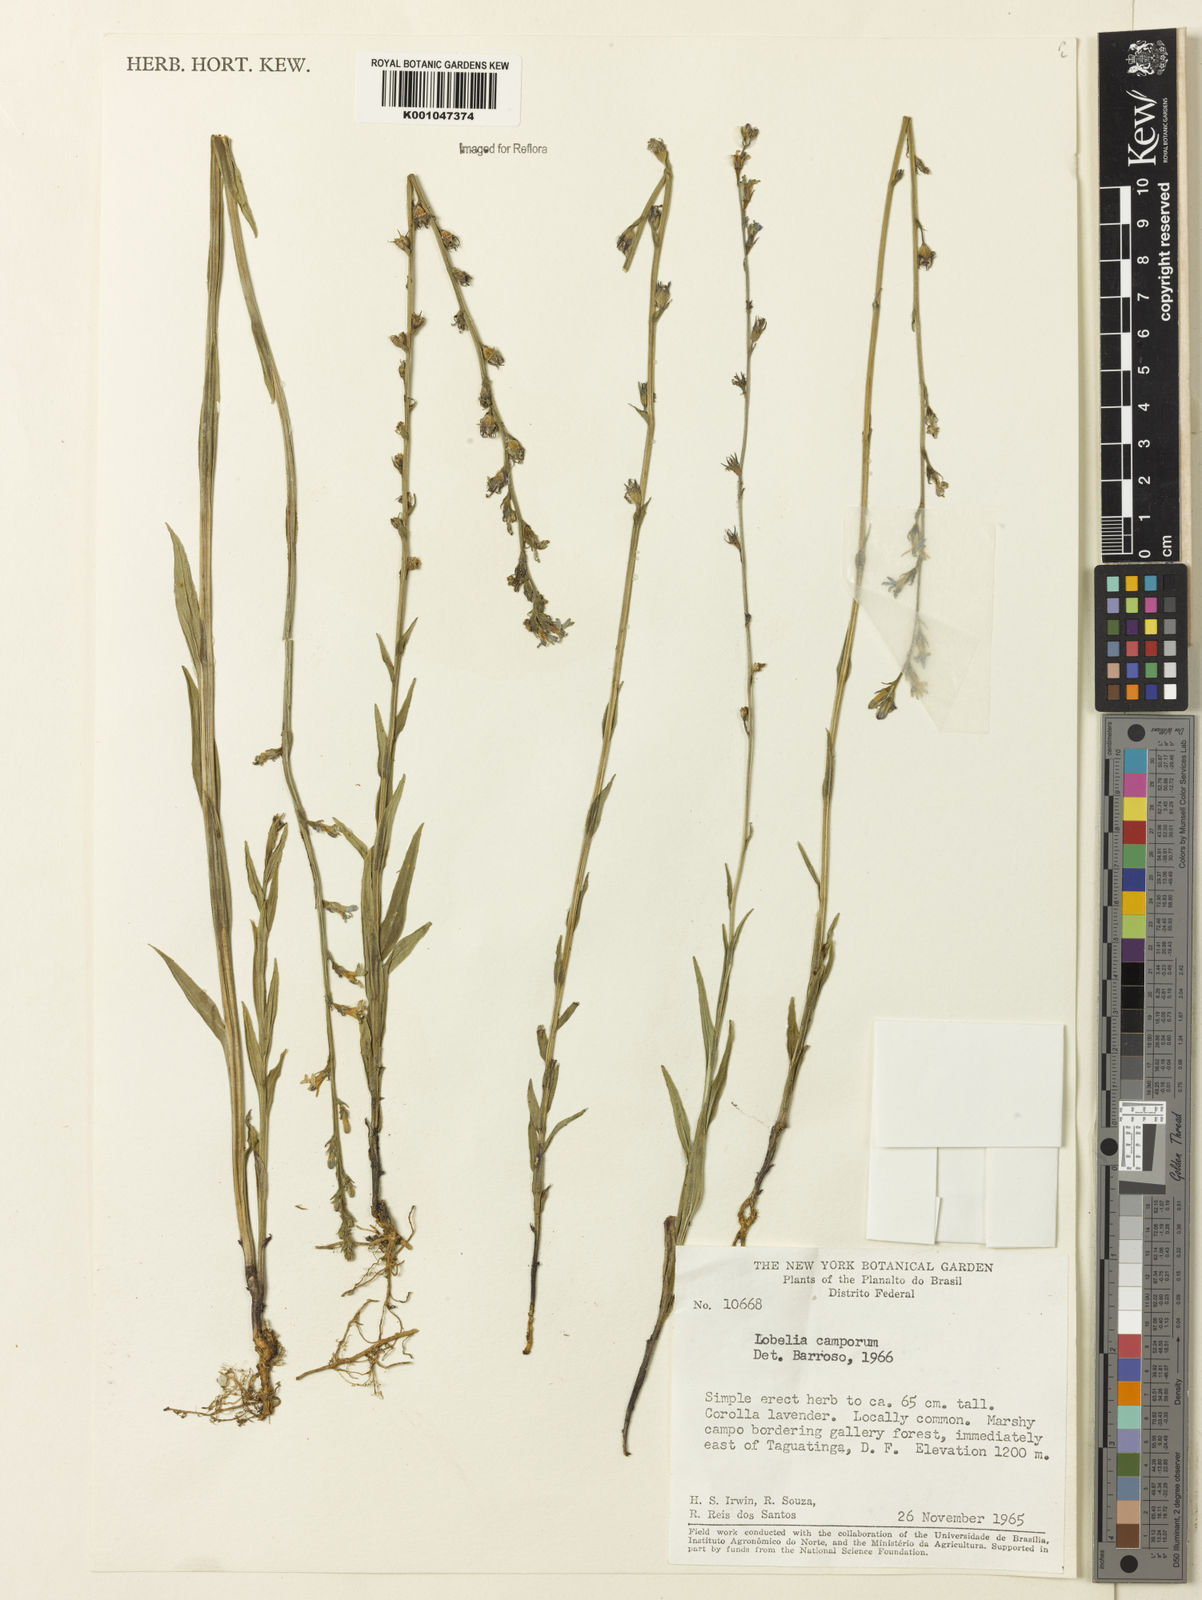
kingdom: Plantae
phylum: Tracheophyta
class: Magnoliopsida
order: Asterales
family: Campanulaceae
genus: Lobelia
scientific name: Lobelia camporum
